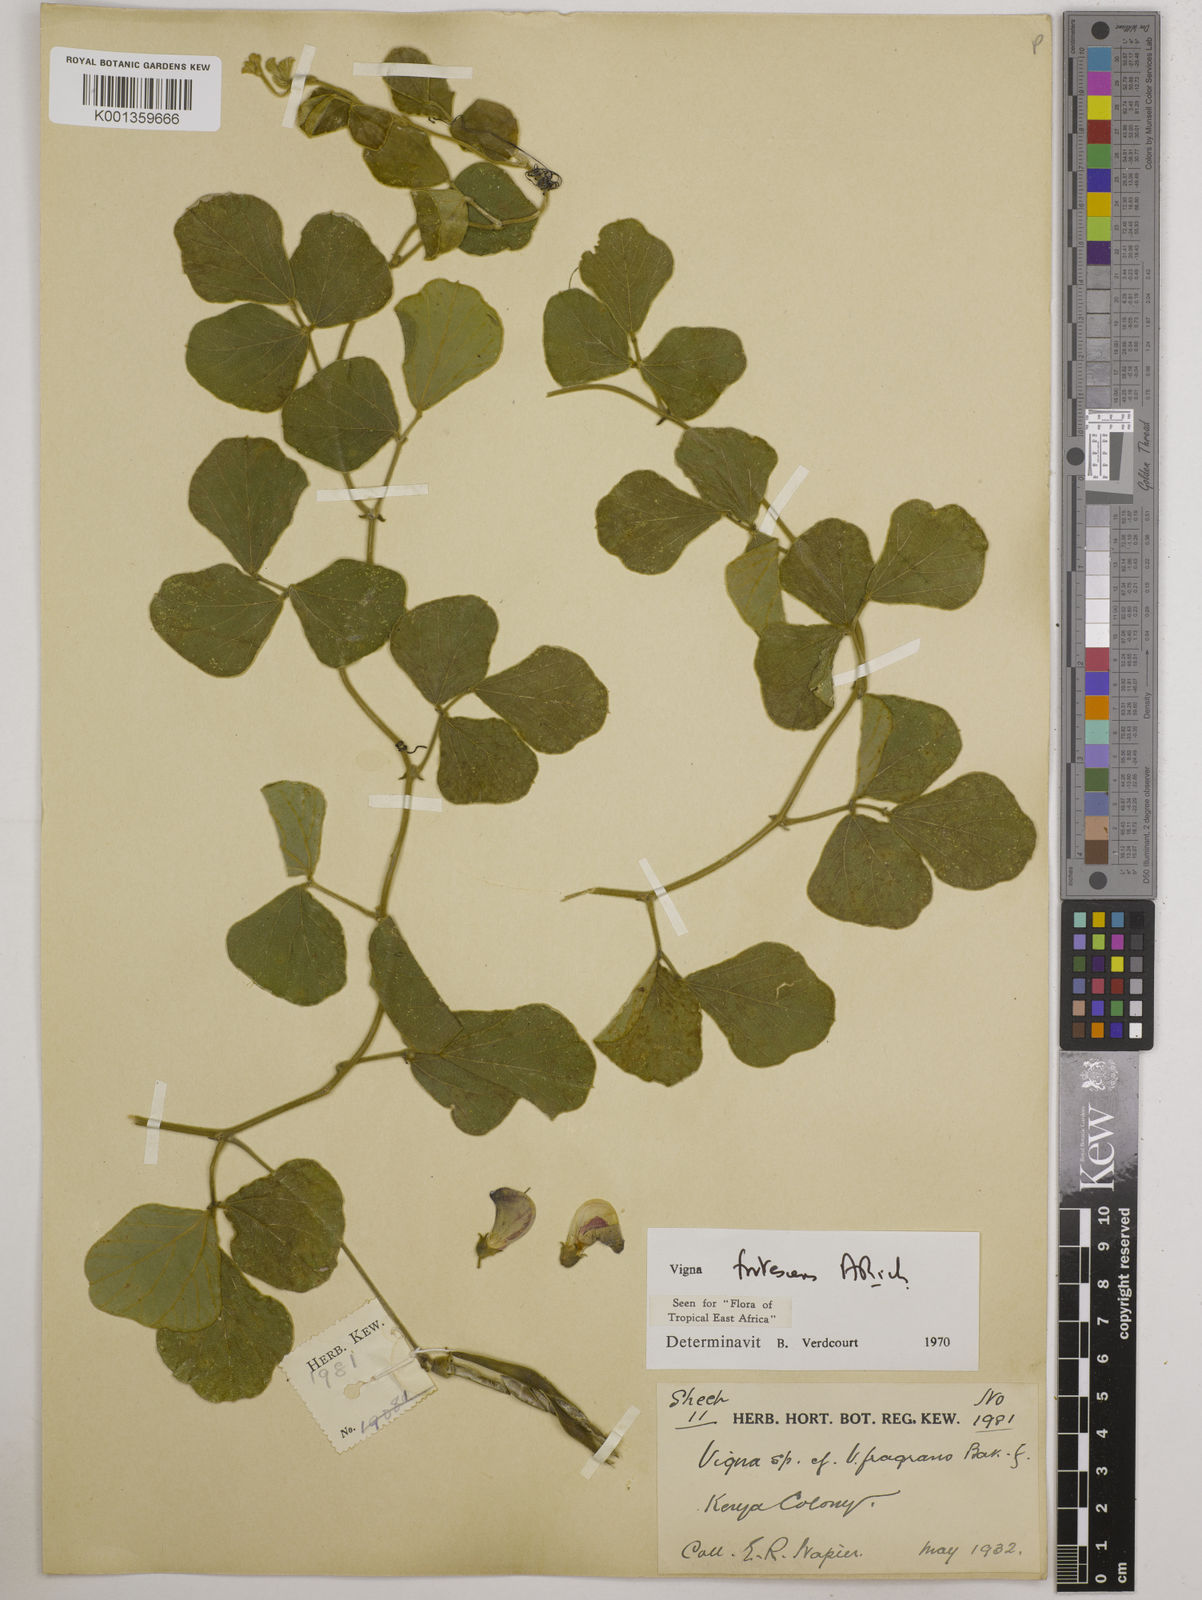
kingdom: Plantae
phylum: Tracheophyta
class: Magnoliopsida
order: Fabales
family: Fabaceae
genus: Vigna
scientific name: Vigna frutescens
